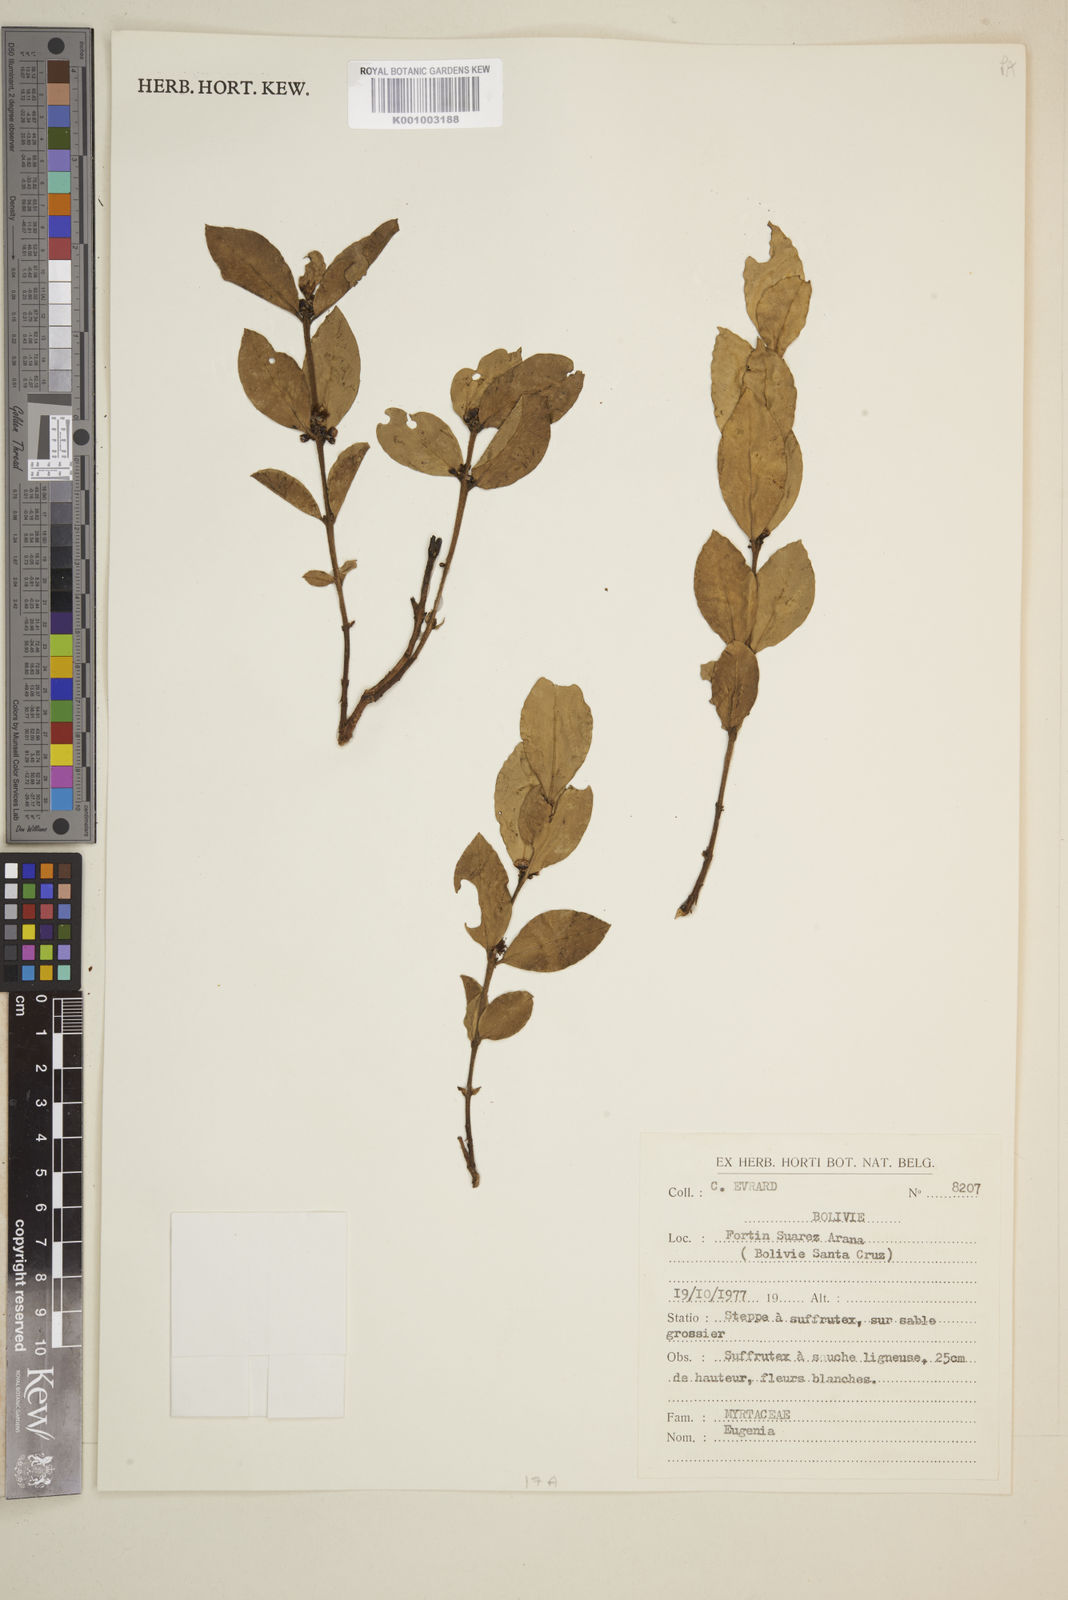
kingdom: Plantae
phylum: Tracheophyta
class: Magnoliopsida
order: Myrtales
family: Myrtaceae
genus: Eugenia
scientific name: Eugenia
